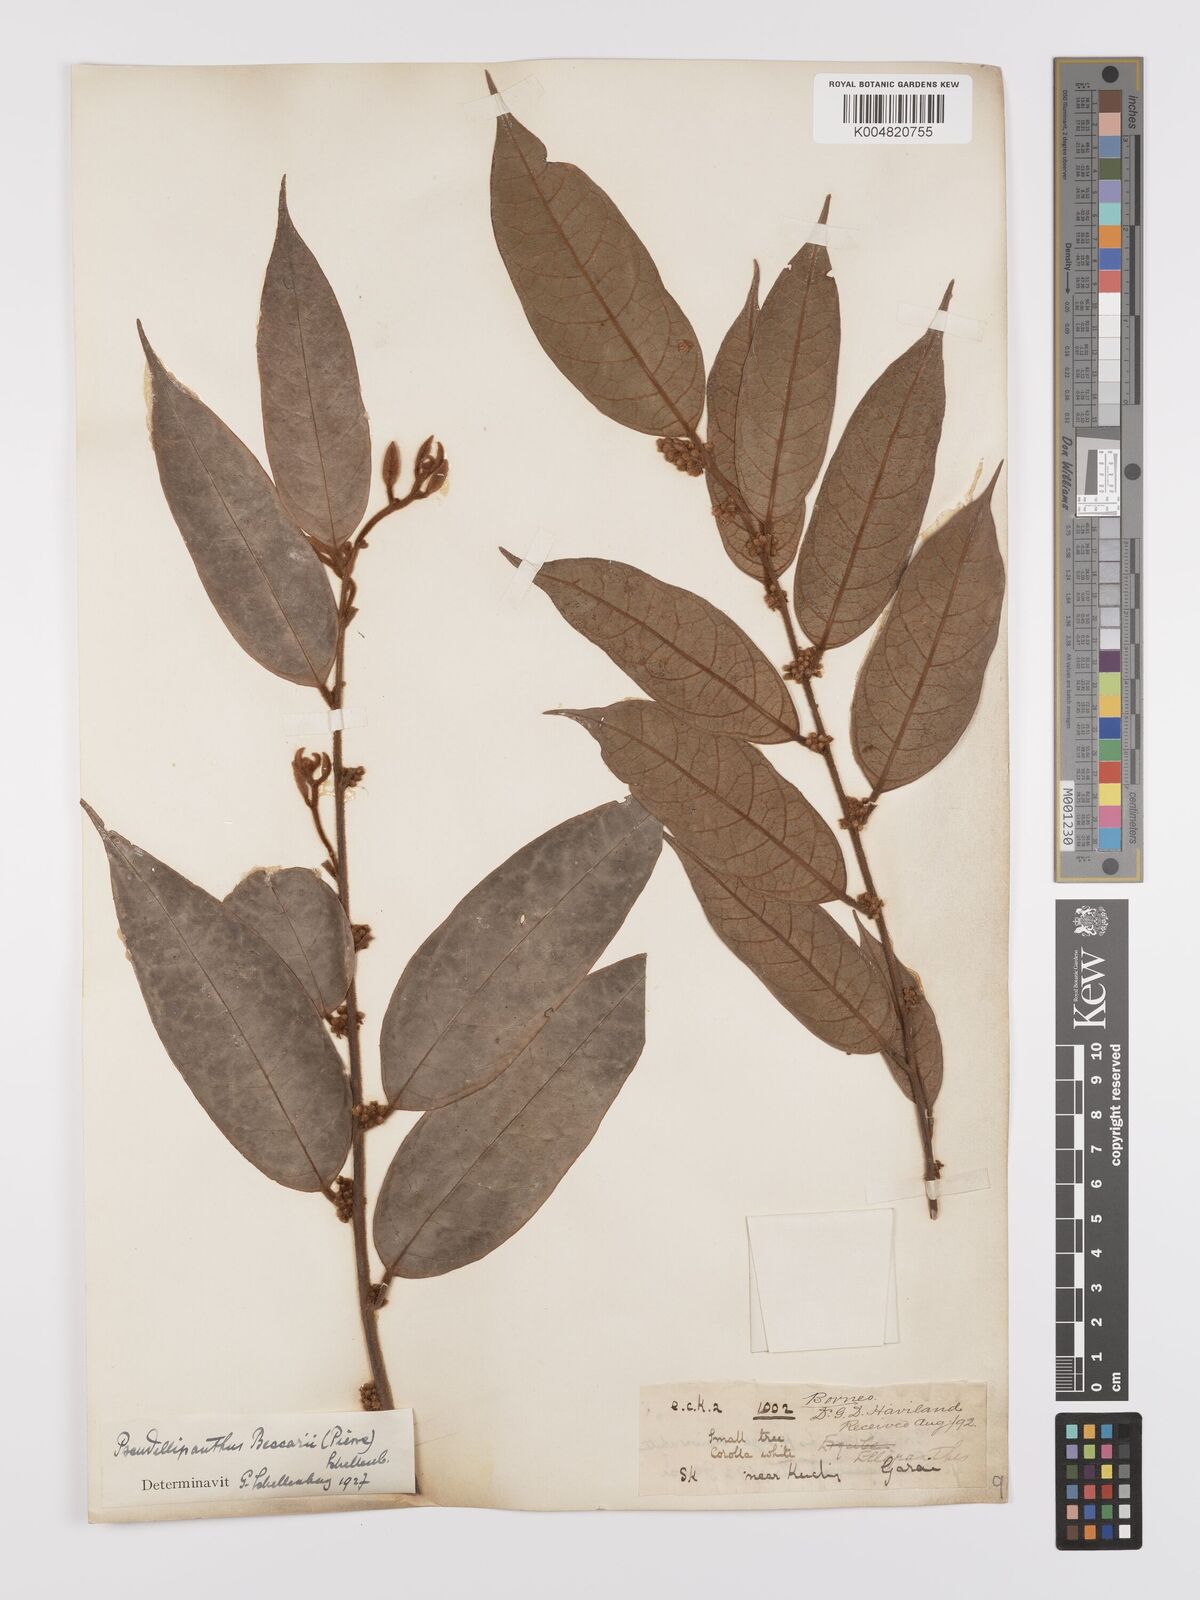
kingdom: Plantae
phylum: Tracheophyta
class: Magnoliopsida
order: Oxalidales
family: Connaraceae
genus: Ellipanthus
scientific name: Ellipanthus beccarii
